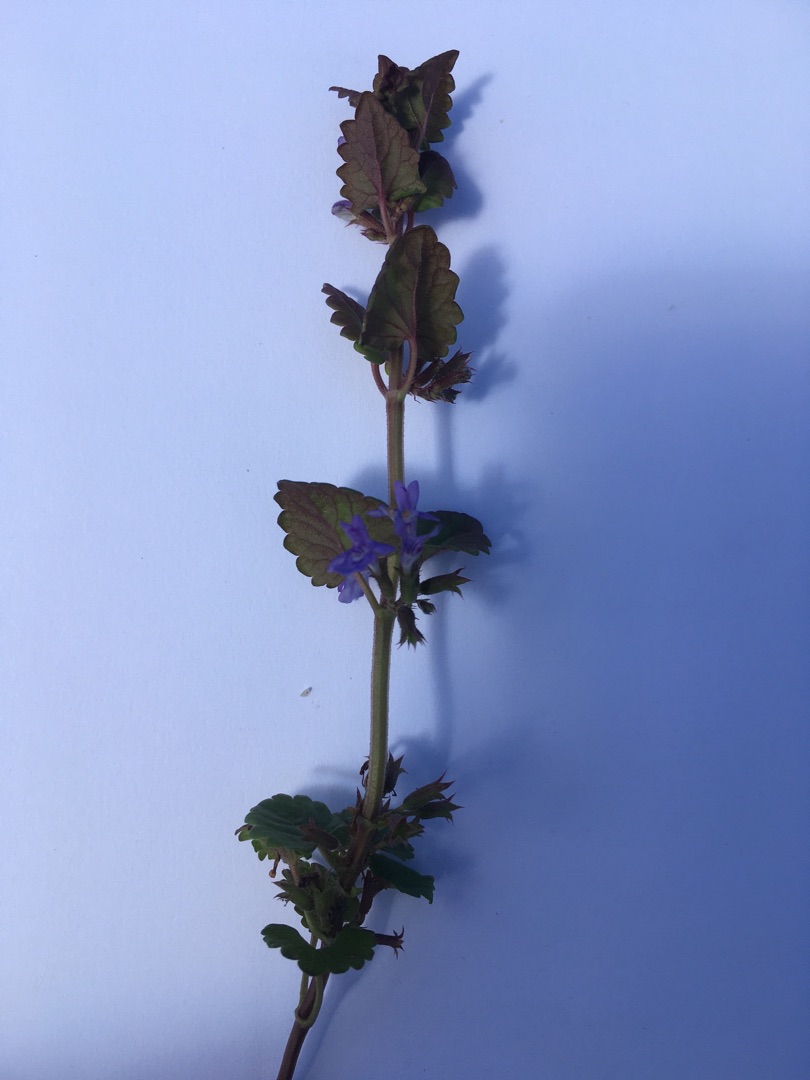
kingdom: Plantae
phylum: Tracheophyta
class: Magnoliopsida
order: Lamiales
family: Lamiaceae
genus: Glechoma
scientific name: Glechoma hederacea
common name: Korsknap
